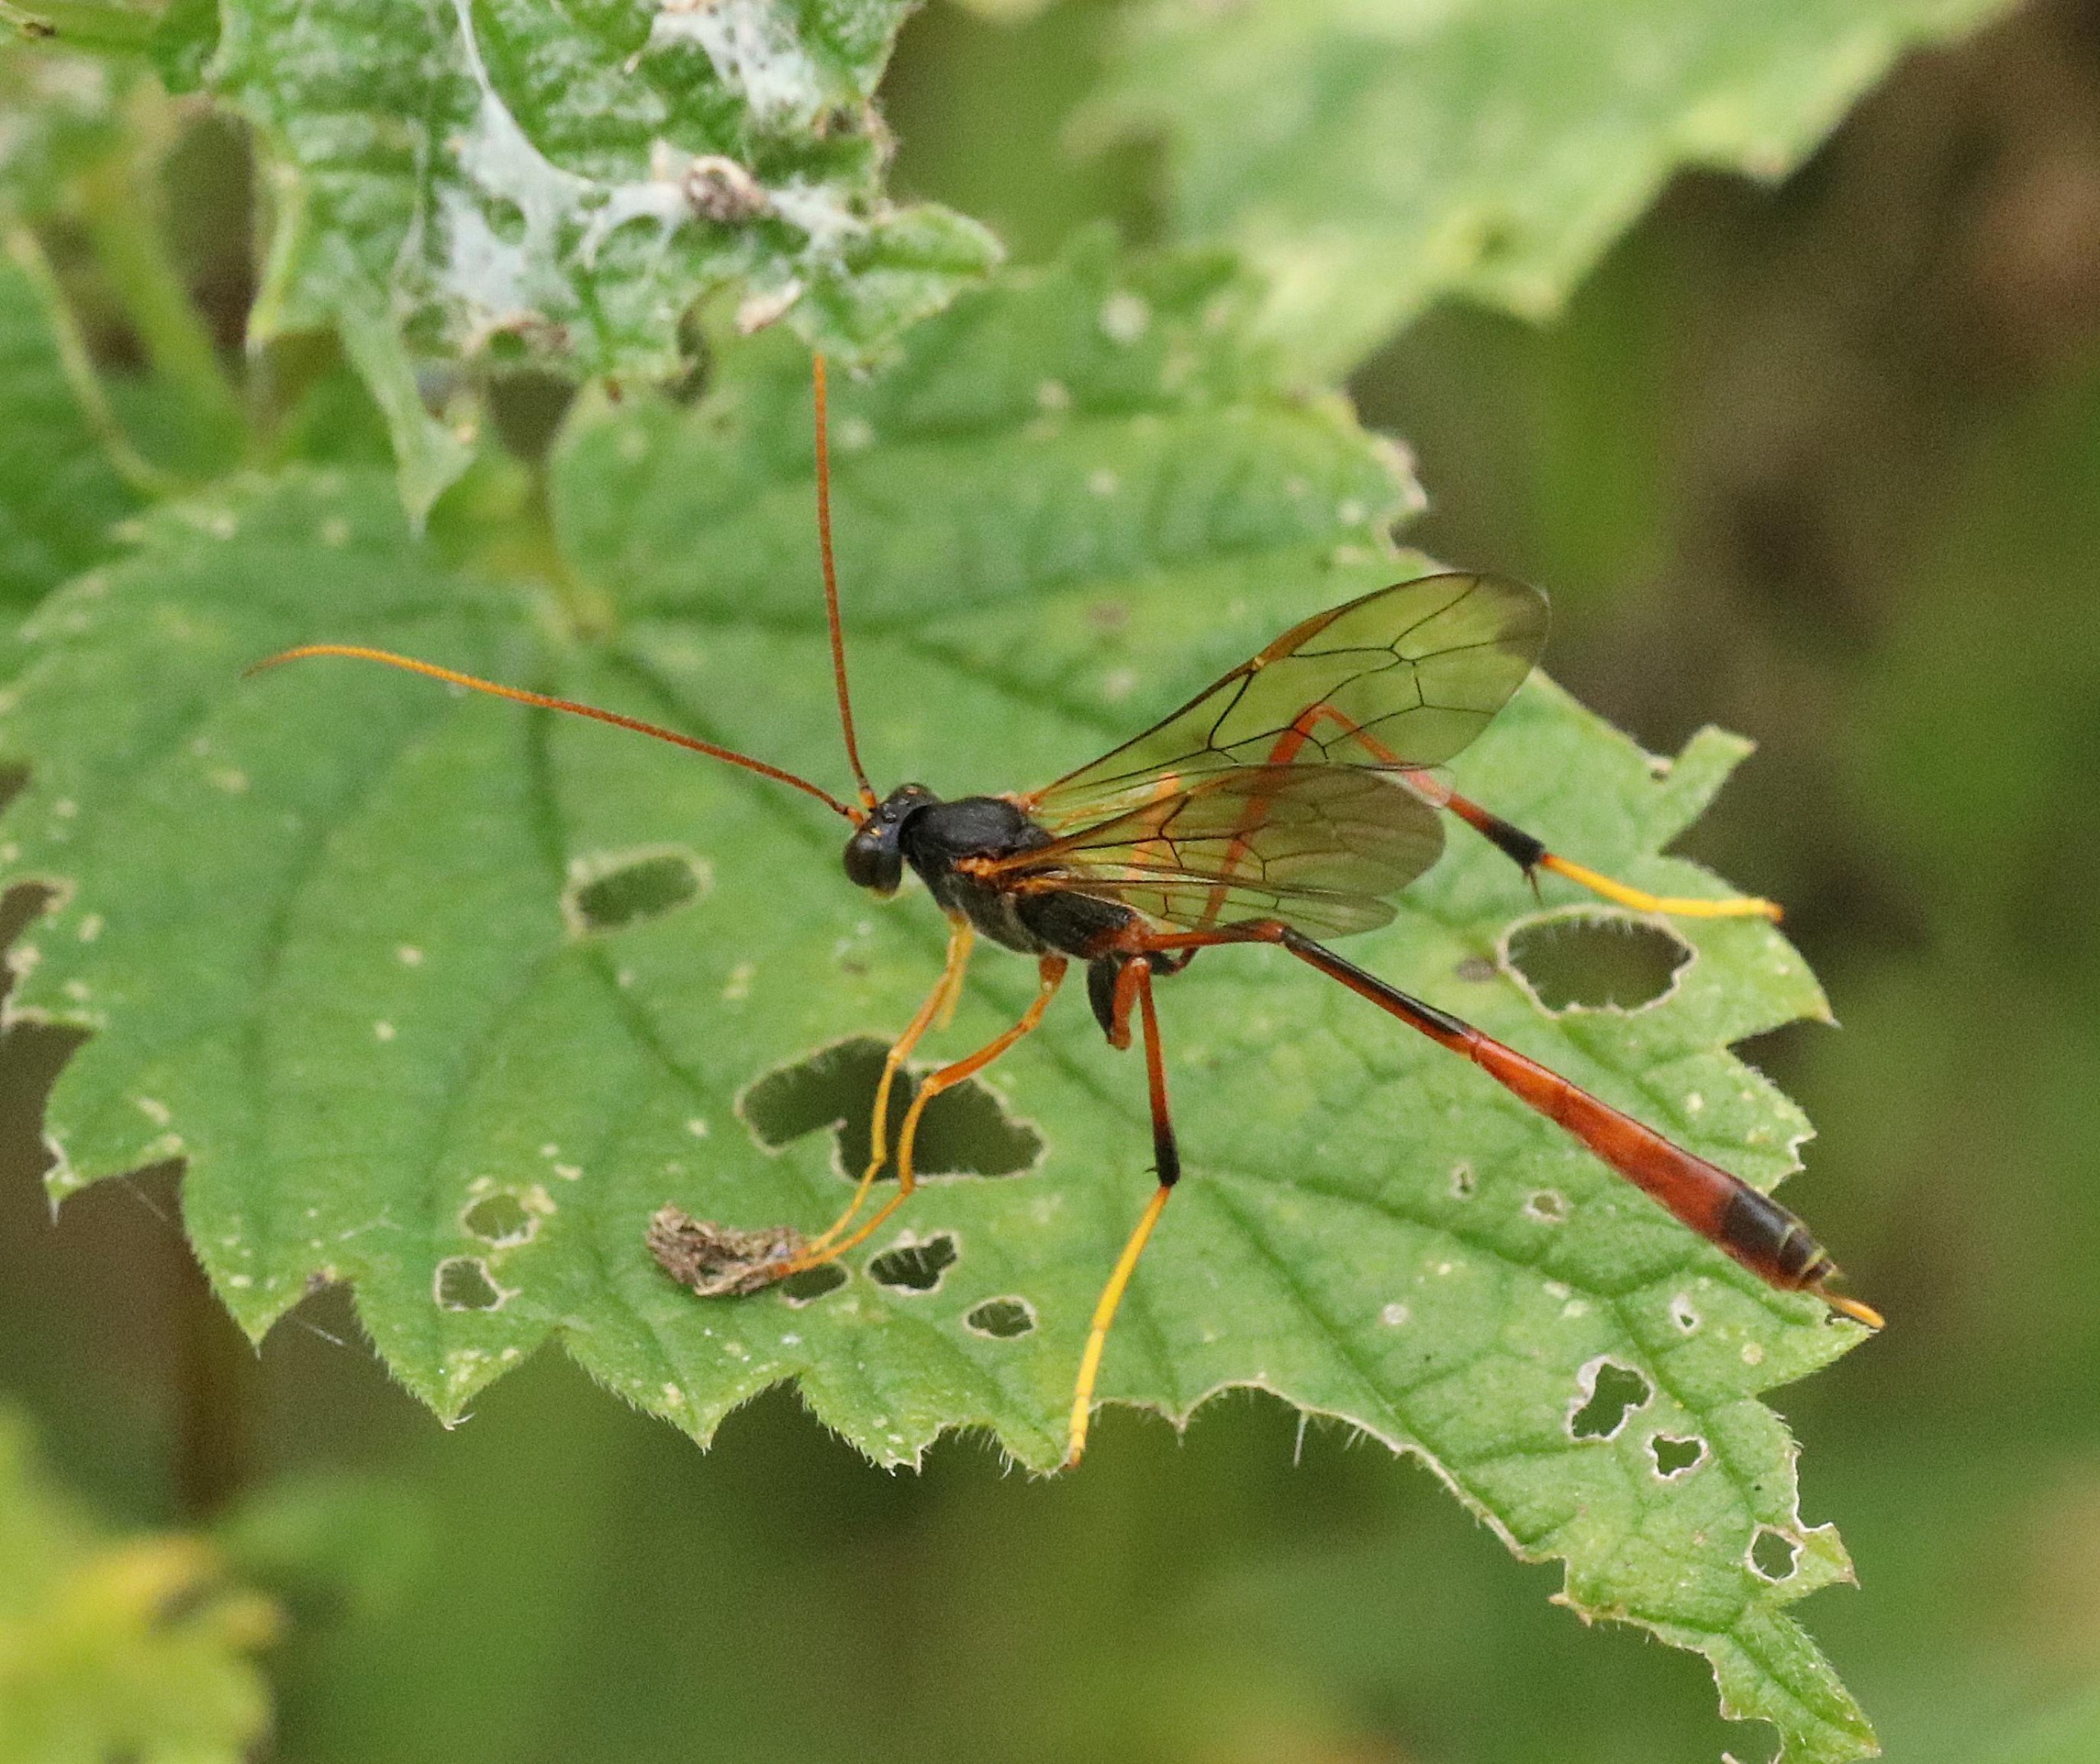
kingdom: Animalia
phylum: Arthropoda
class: Insecta
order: Hymenoptera
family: Ichneumonidae
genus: Aphanistes
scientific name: Aphanistes ruficornis
